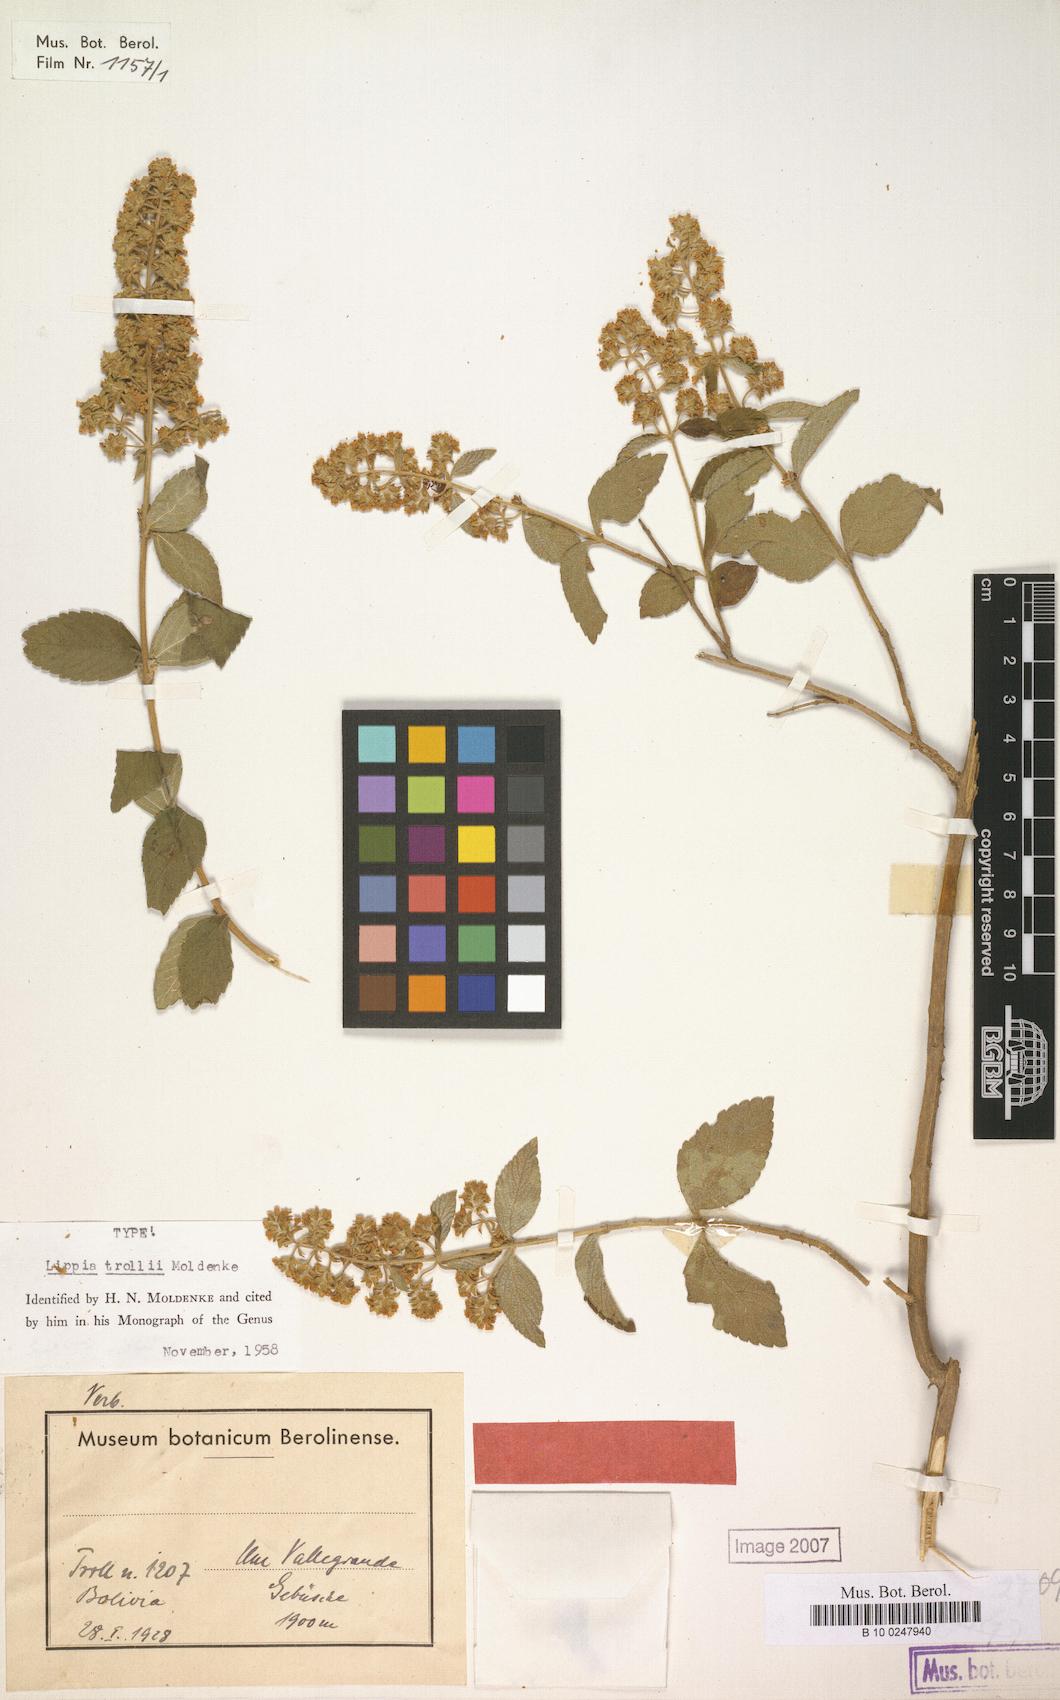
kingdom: Plantae
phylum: Tracheophyta
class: Magnoliopsida
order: Lamiales
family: Verbenaceae
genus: Lippia
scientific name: Lippia trollii
